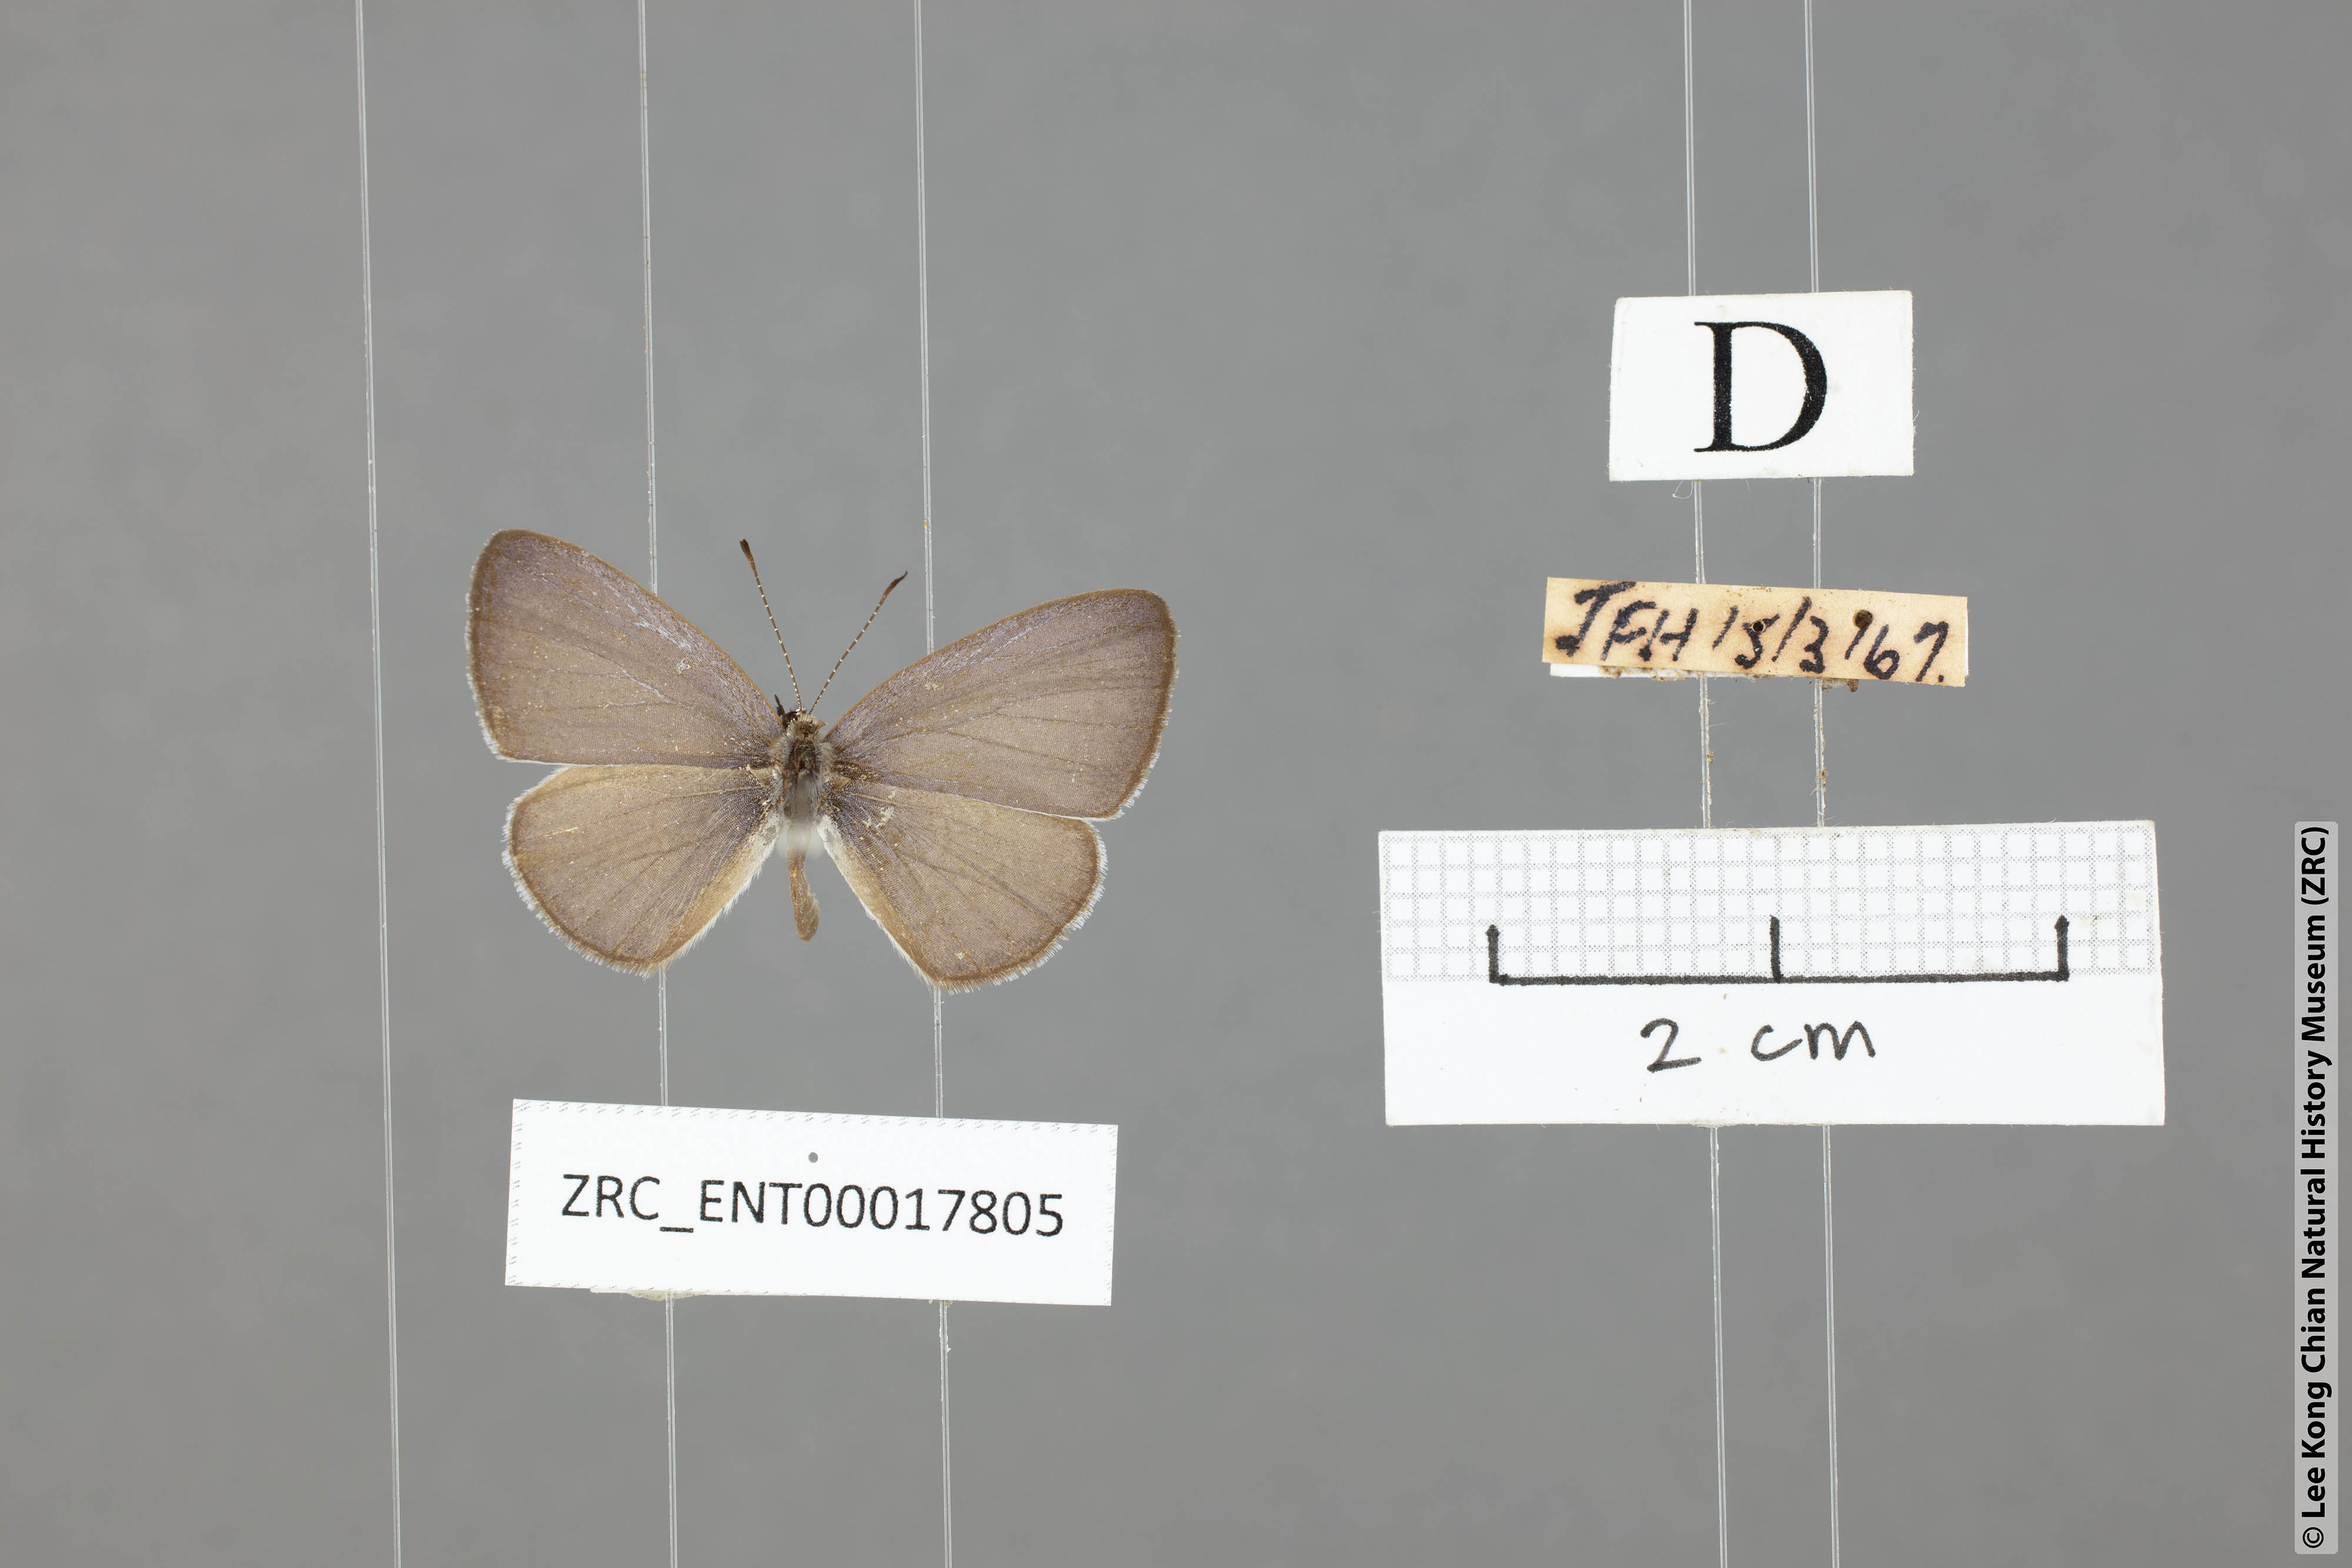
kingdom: Animalia
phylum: Arthropoda
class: Insecta
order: Lepidoptera
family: Lycaenidae
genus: Monodontides
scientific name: Monodontides
